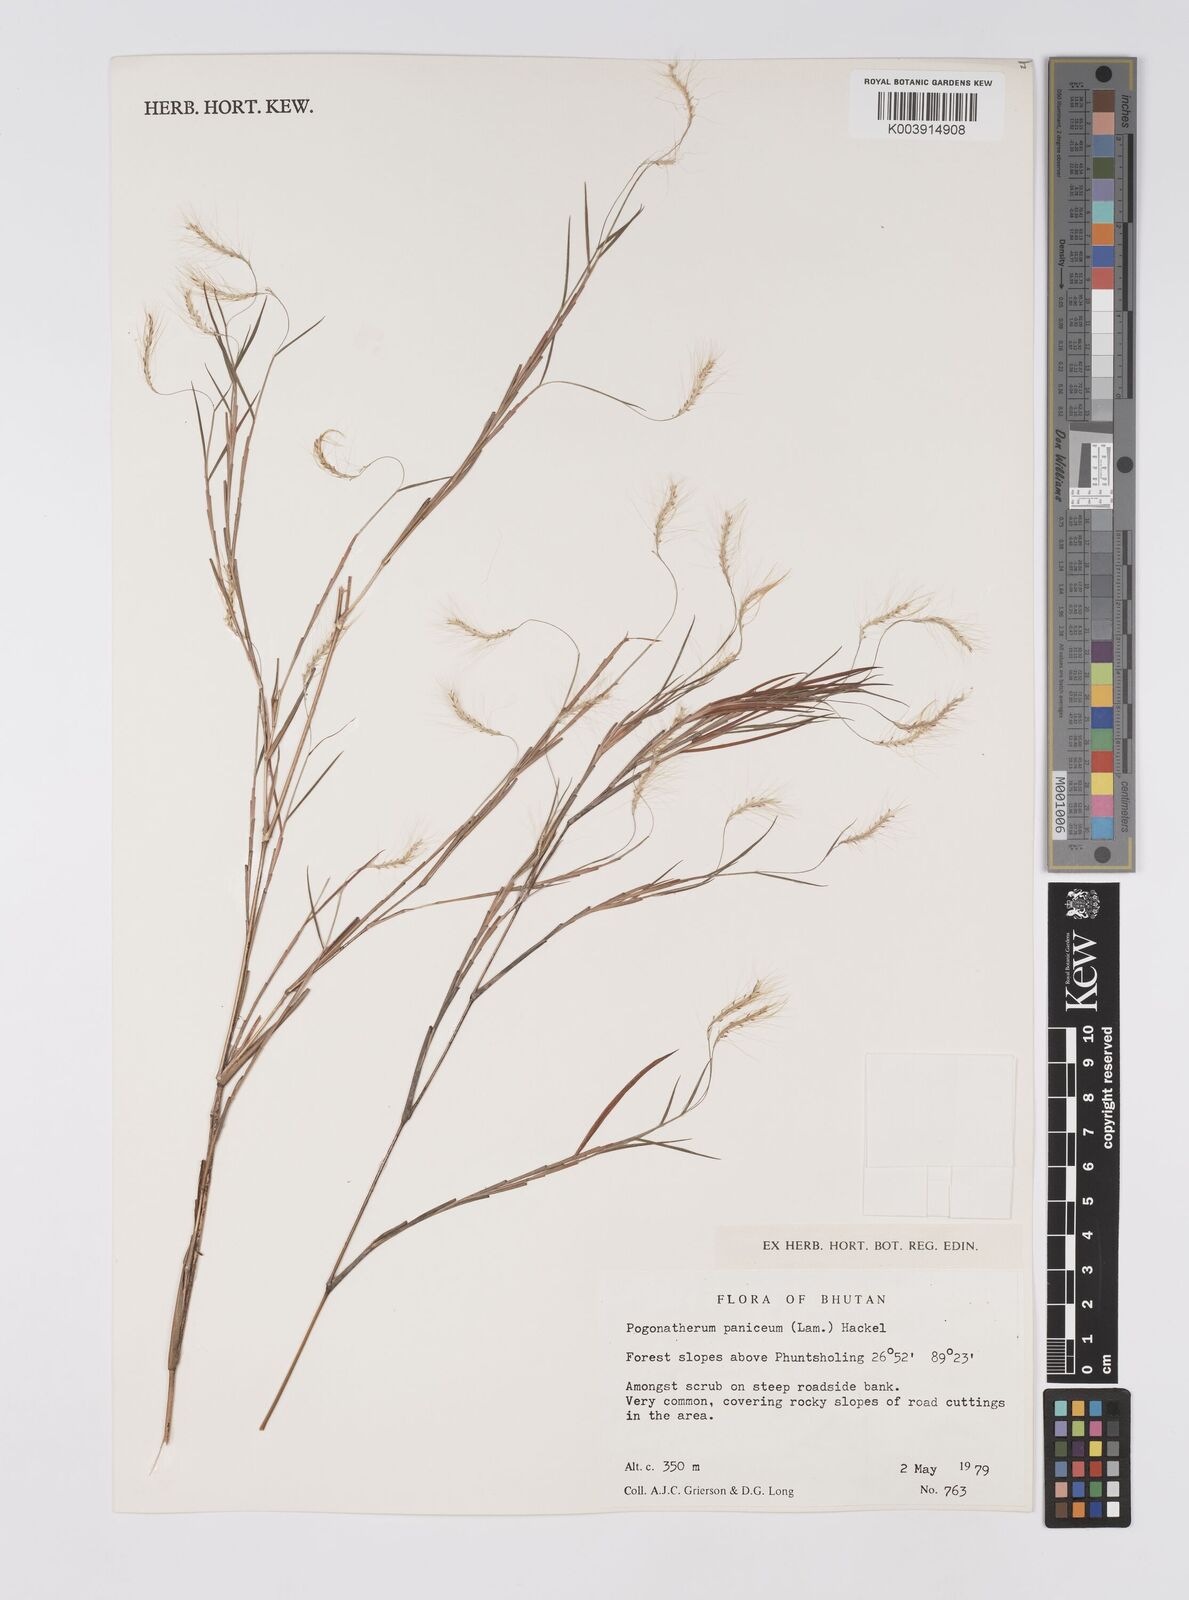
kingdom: Plantae
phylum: Tracheophyta
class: Liliopsida
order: Poales
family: Poaceae
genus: Pogonatherum
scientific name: Pogonatherum paniceum
